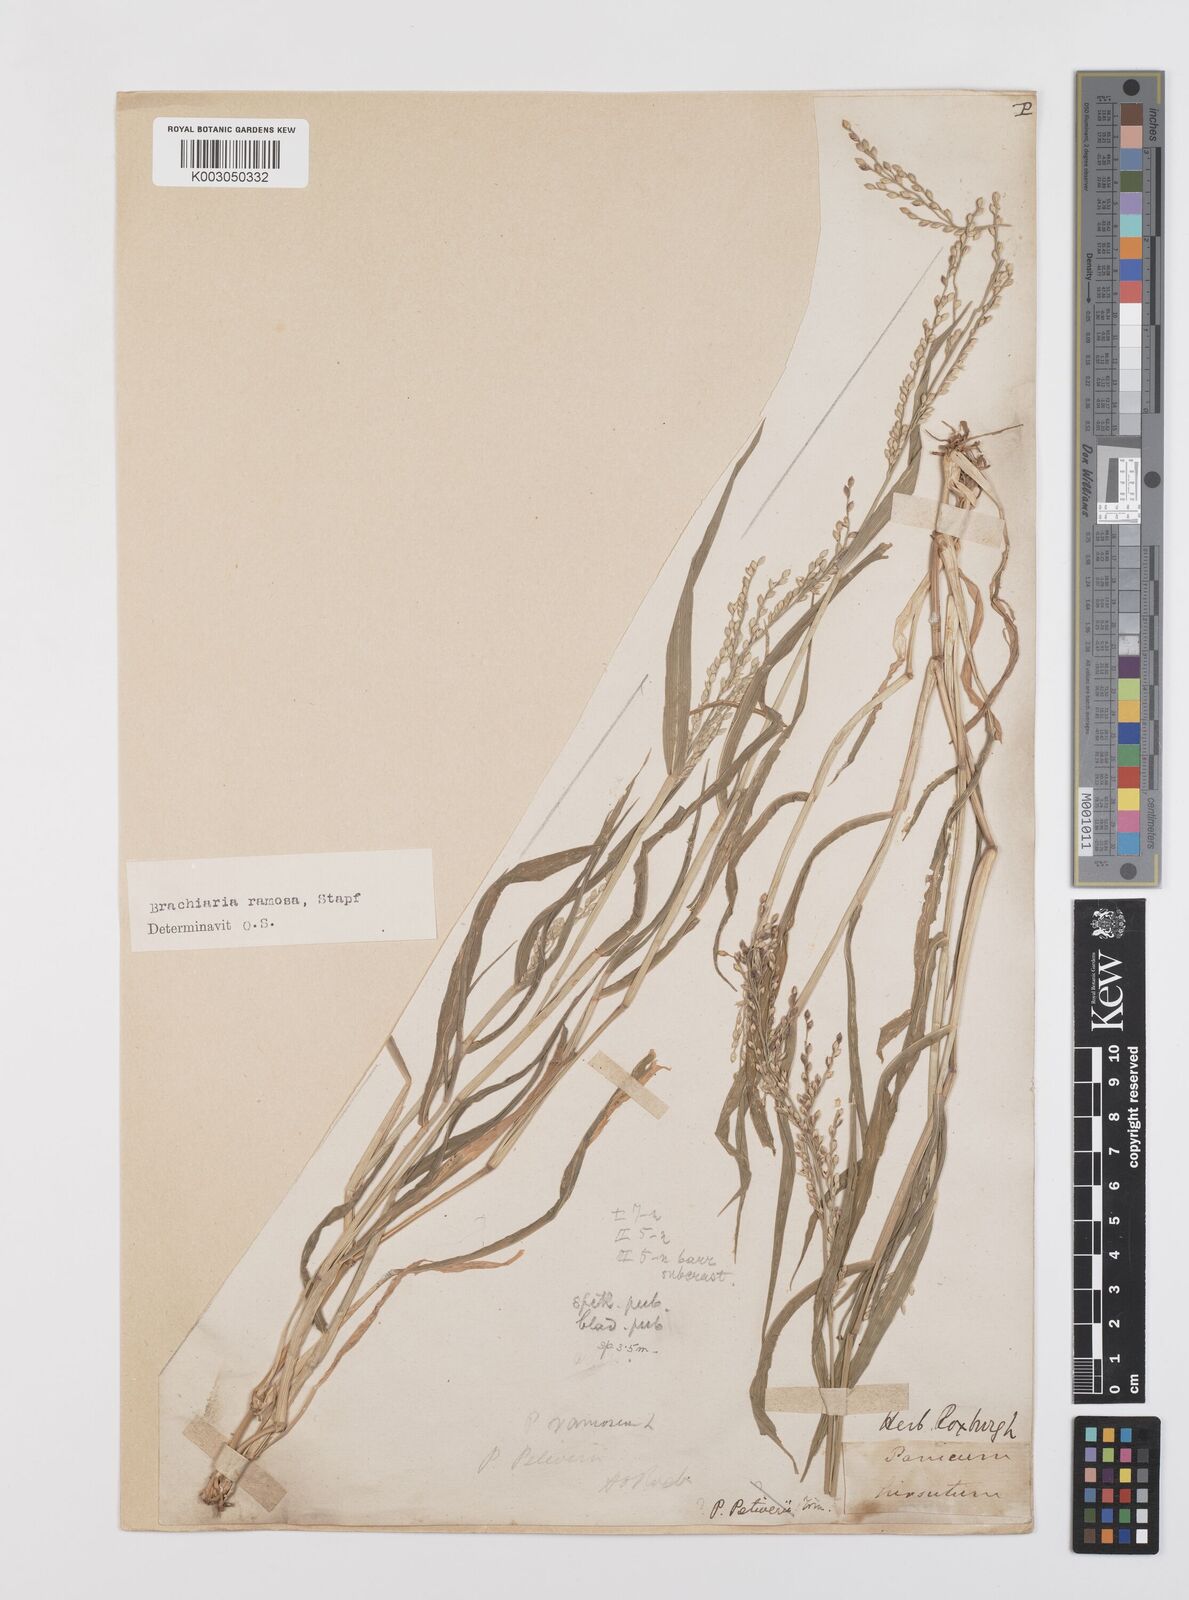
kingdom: Plantae
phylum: Tracheophyta
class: Liliopsida
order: Poales
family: Poaceae
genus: Urochloa
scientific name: Urochloa ramosa
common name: Browntop millet
